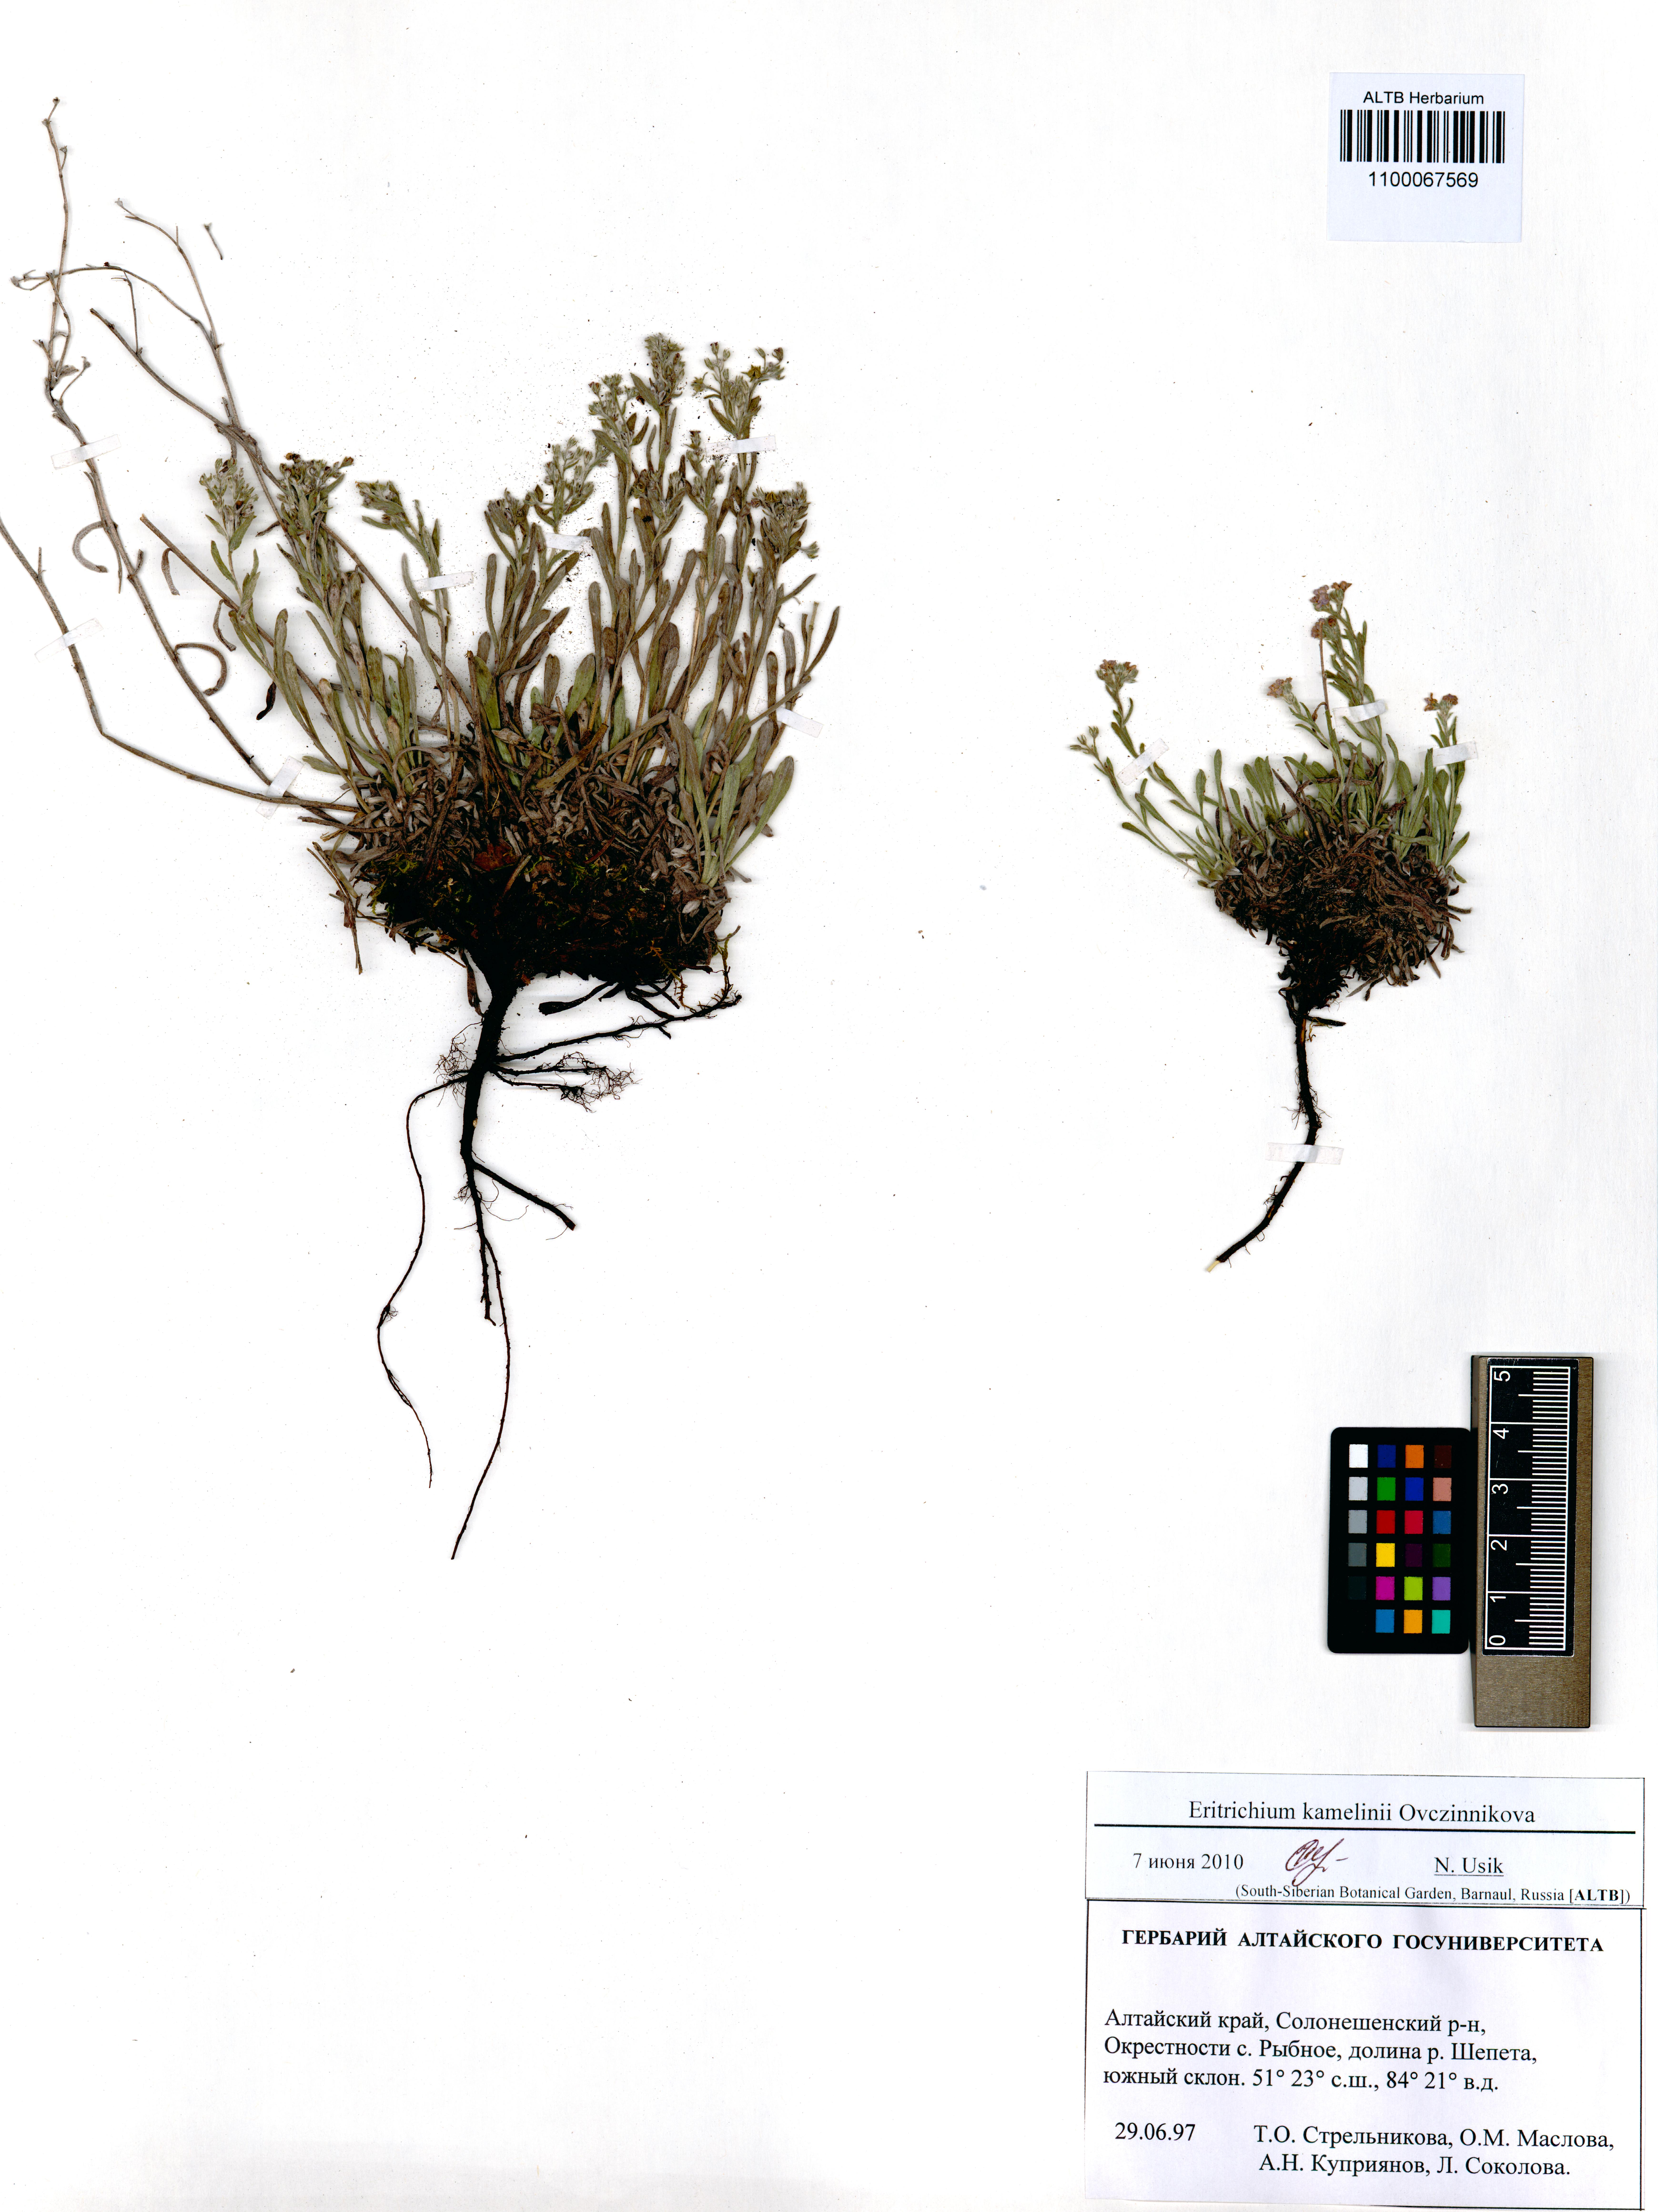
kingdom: Plantae
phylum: Tracheophyta
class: Magnoliopsida
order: Boraginales
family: Boraginaceae
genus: Eritrichium
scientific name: Eritrichium kamelinii
